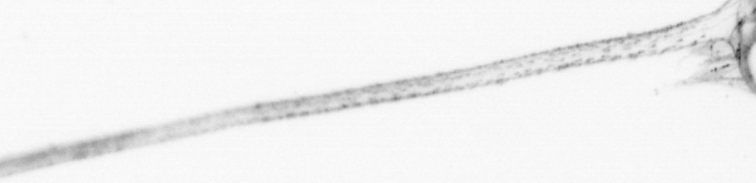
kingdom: Animalia
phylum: Arthropoda
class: Malacostraca
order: Decapoda
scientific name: Decapoda
